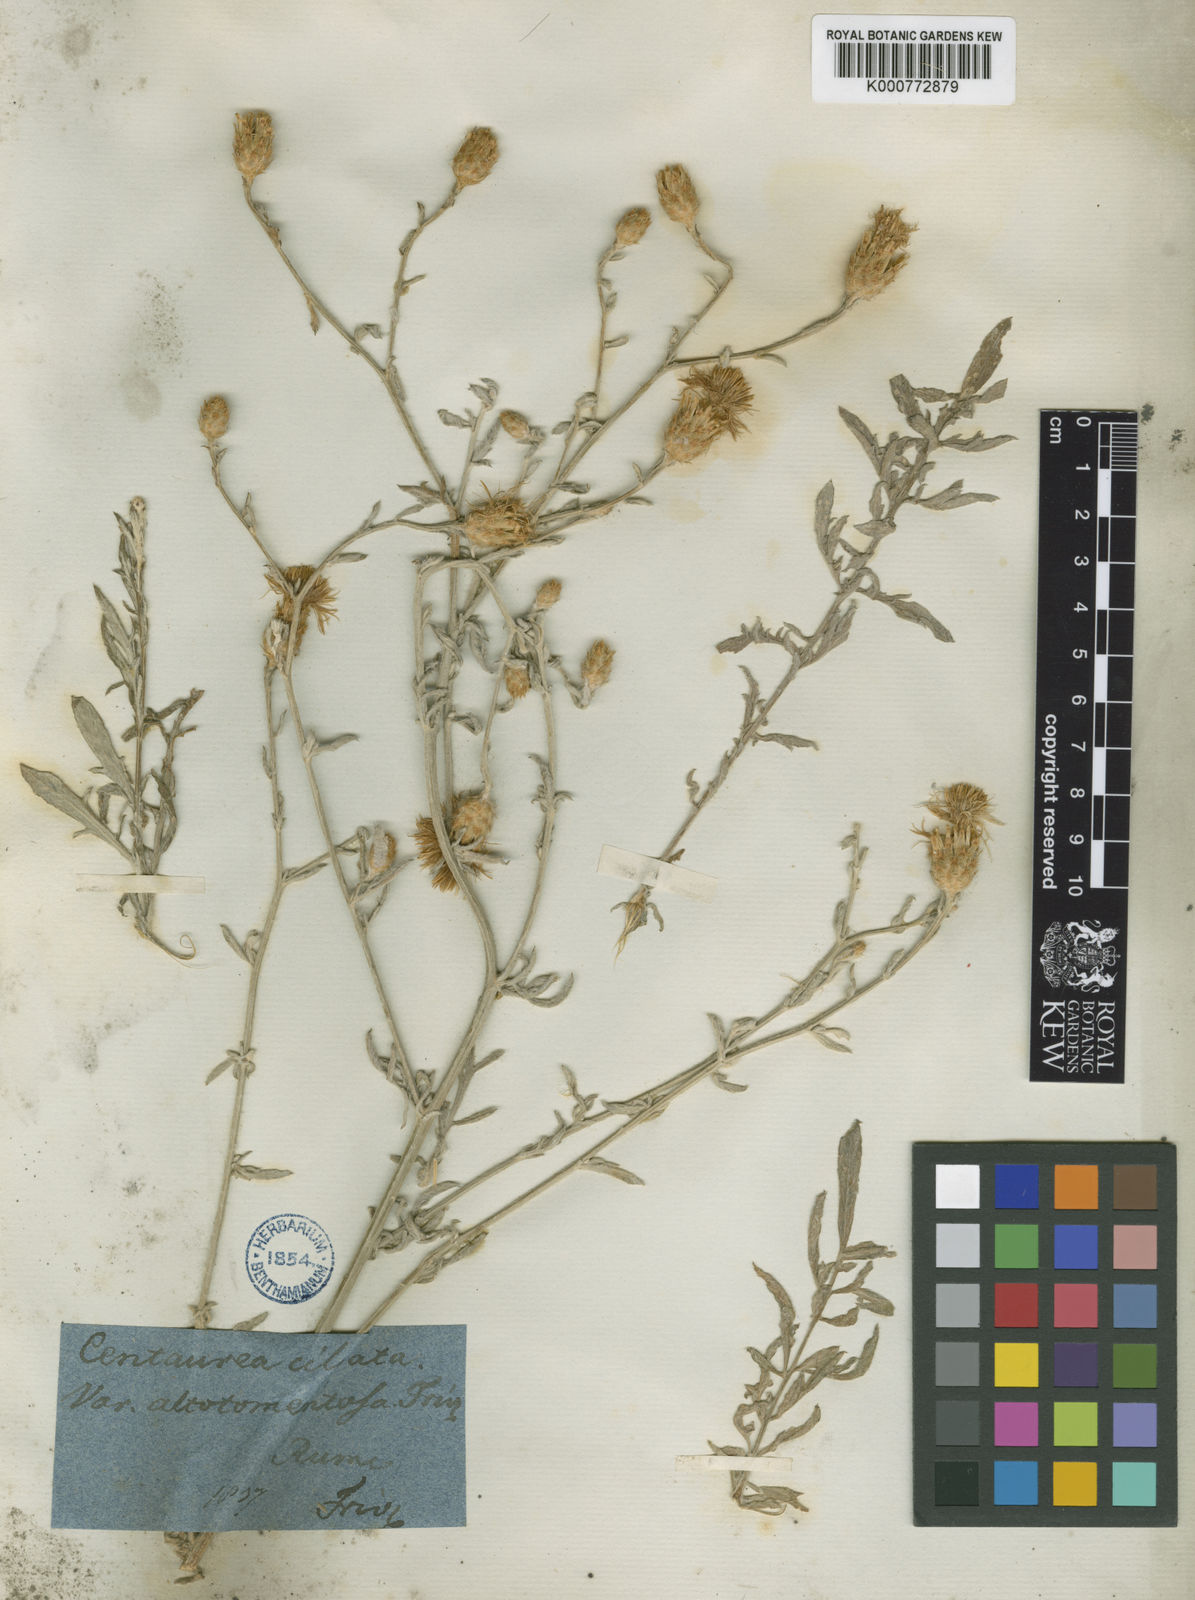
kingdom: Plantae
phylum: Tracheophyta
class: Magnoliopsida
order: Asterales
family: Asteraceae
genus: Centaurea
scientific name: Centaurea cuneifolia
